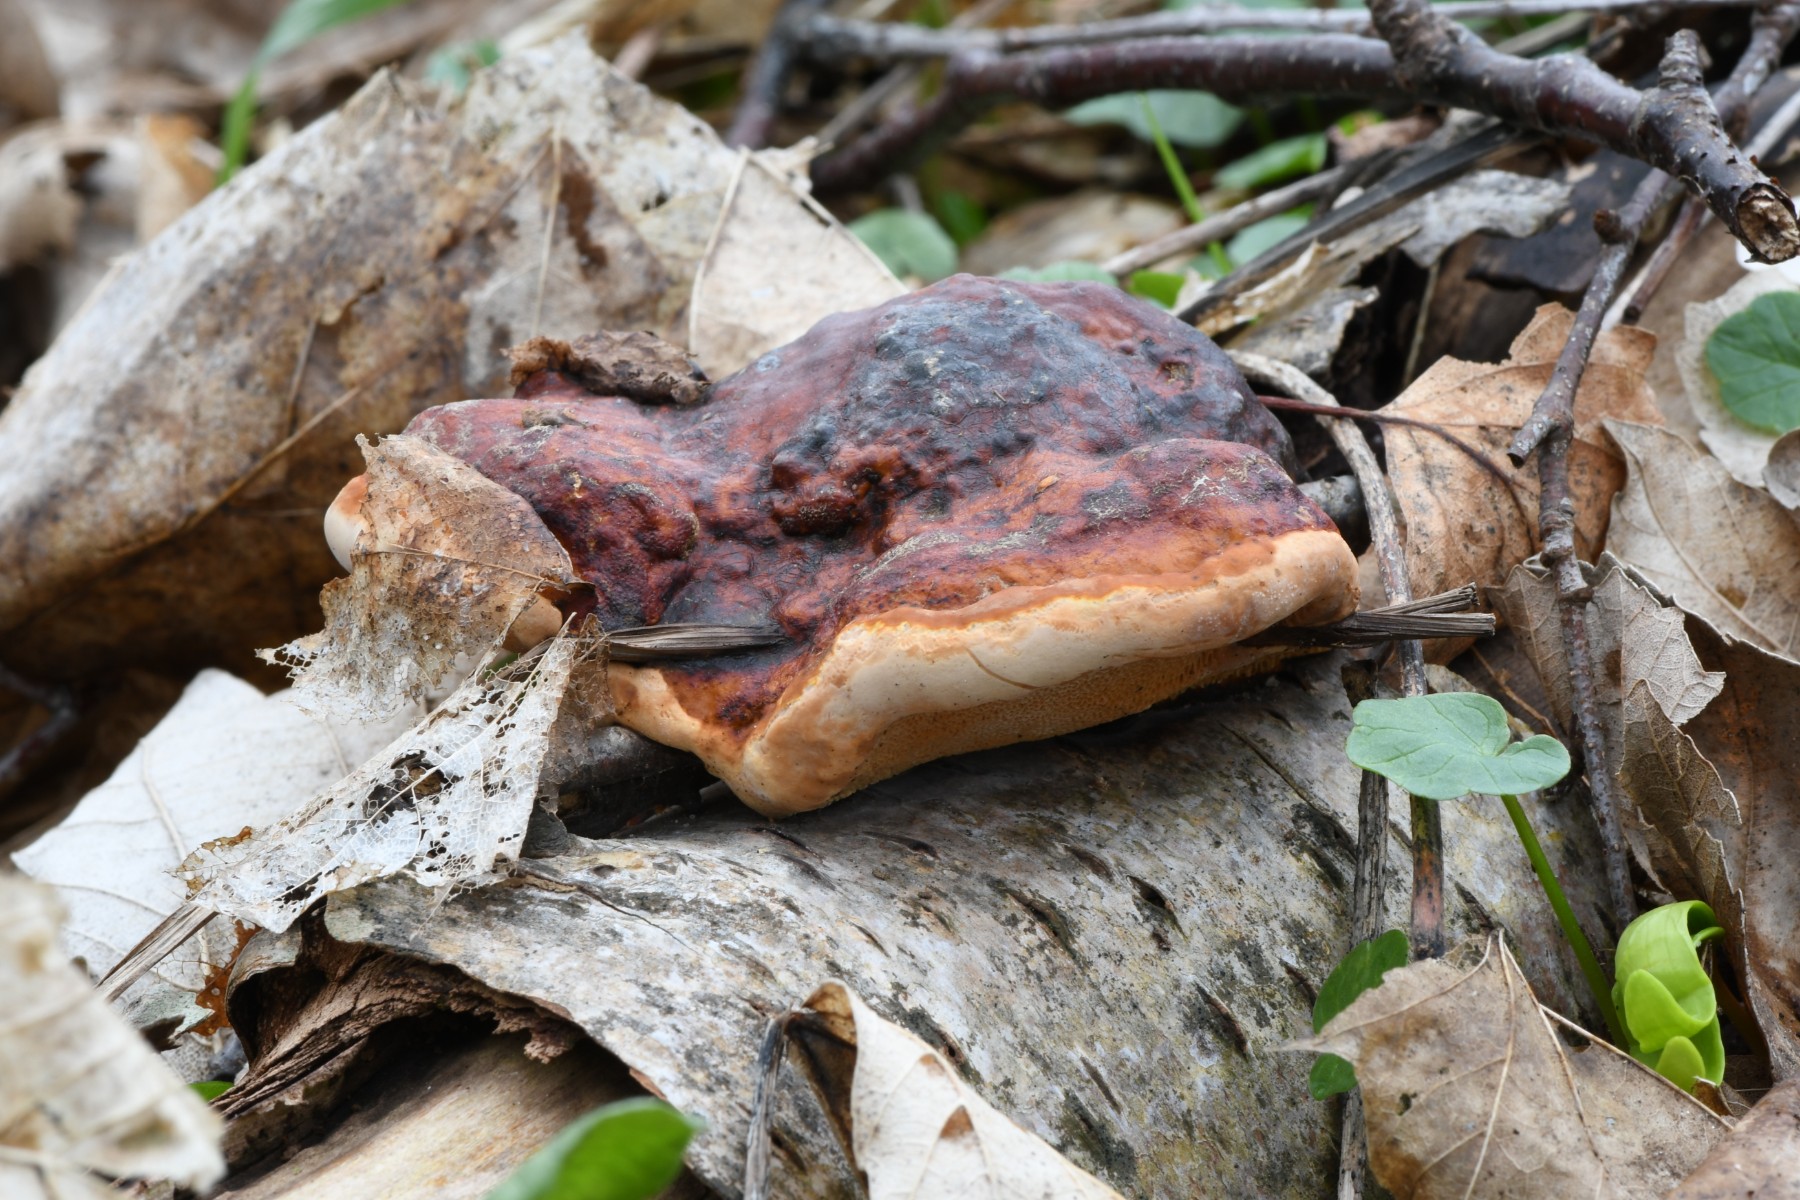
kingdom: Fungi
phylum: Basidiomycota
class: Agaricomycetes
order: Polyporales
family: Fomitopsidaceae
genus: Fomitopsis
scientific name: Fomitopsis pinicola
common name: randbæltet hovporesvamp
